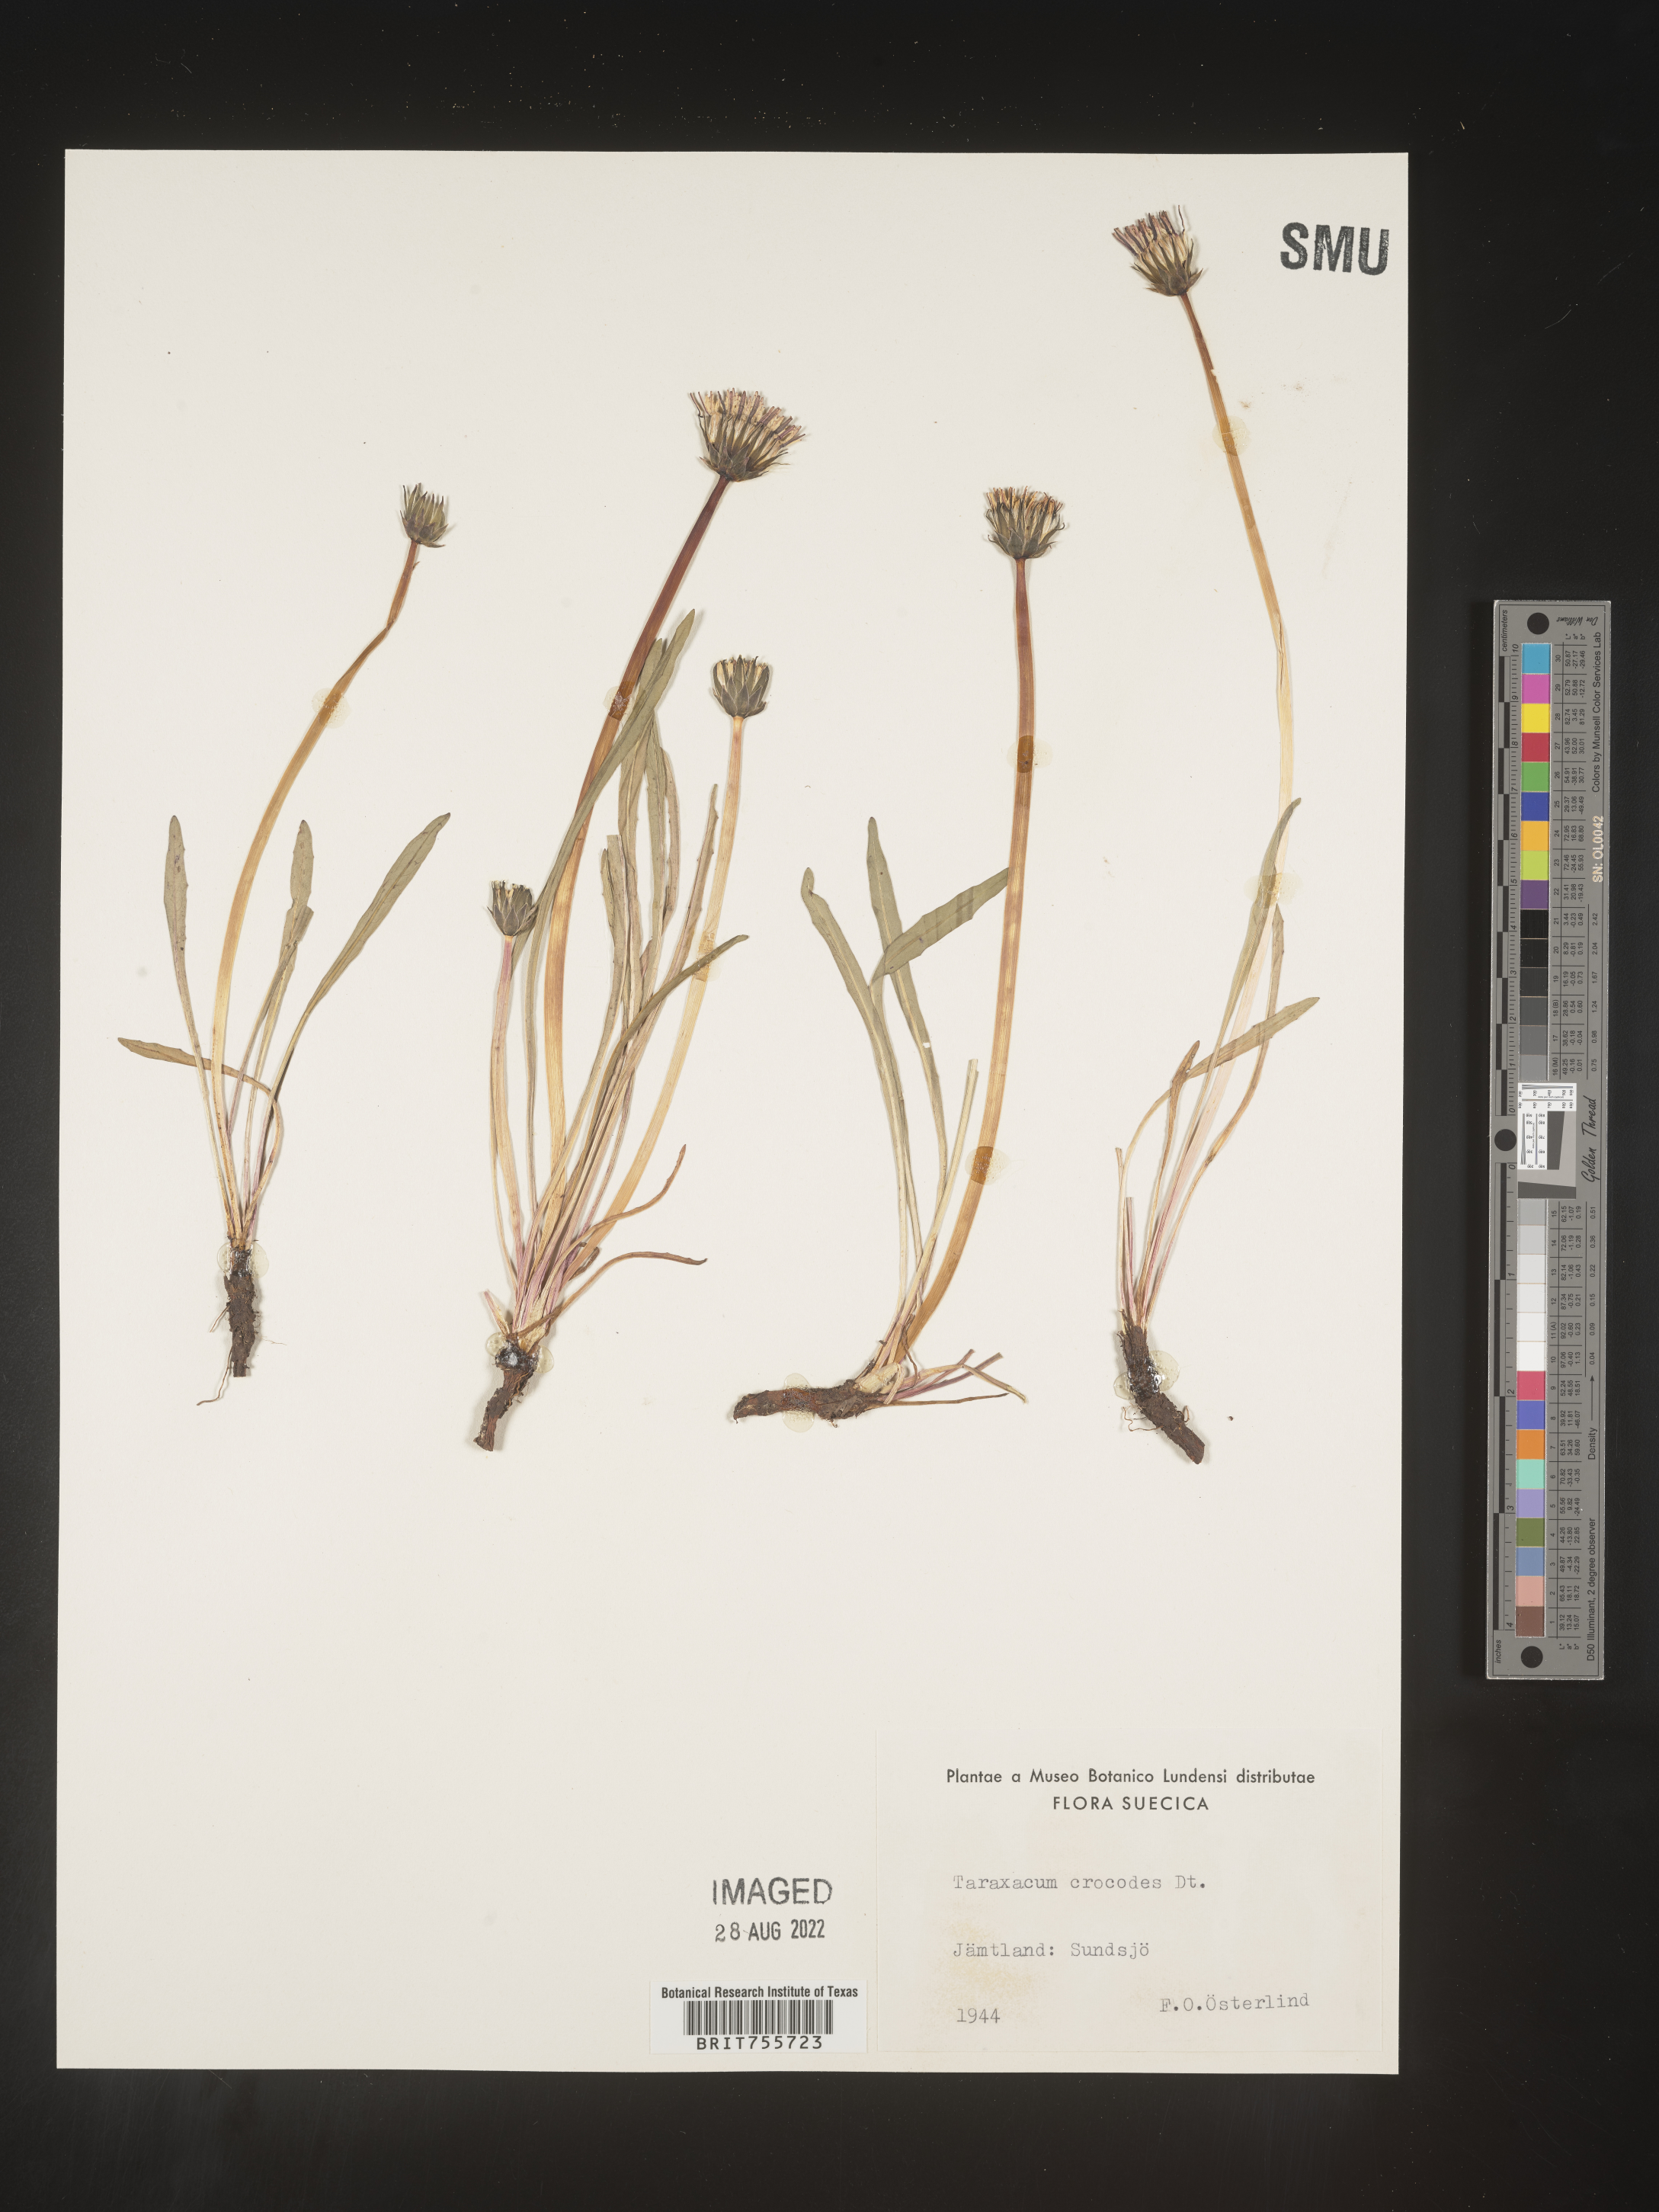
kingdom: Plantae
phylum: Tracheophyta
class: Magnoliopsida
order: Asterales
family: Asteraceae
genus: Taraxacum
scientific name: Taraxacum
